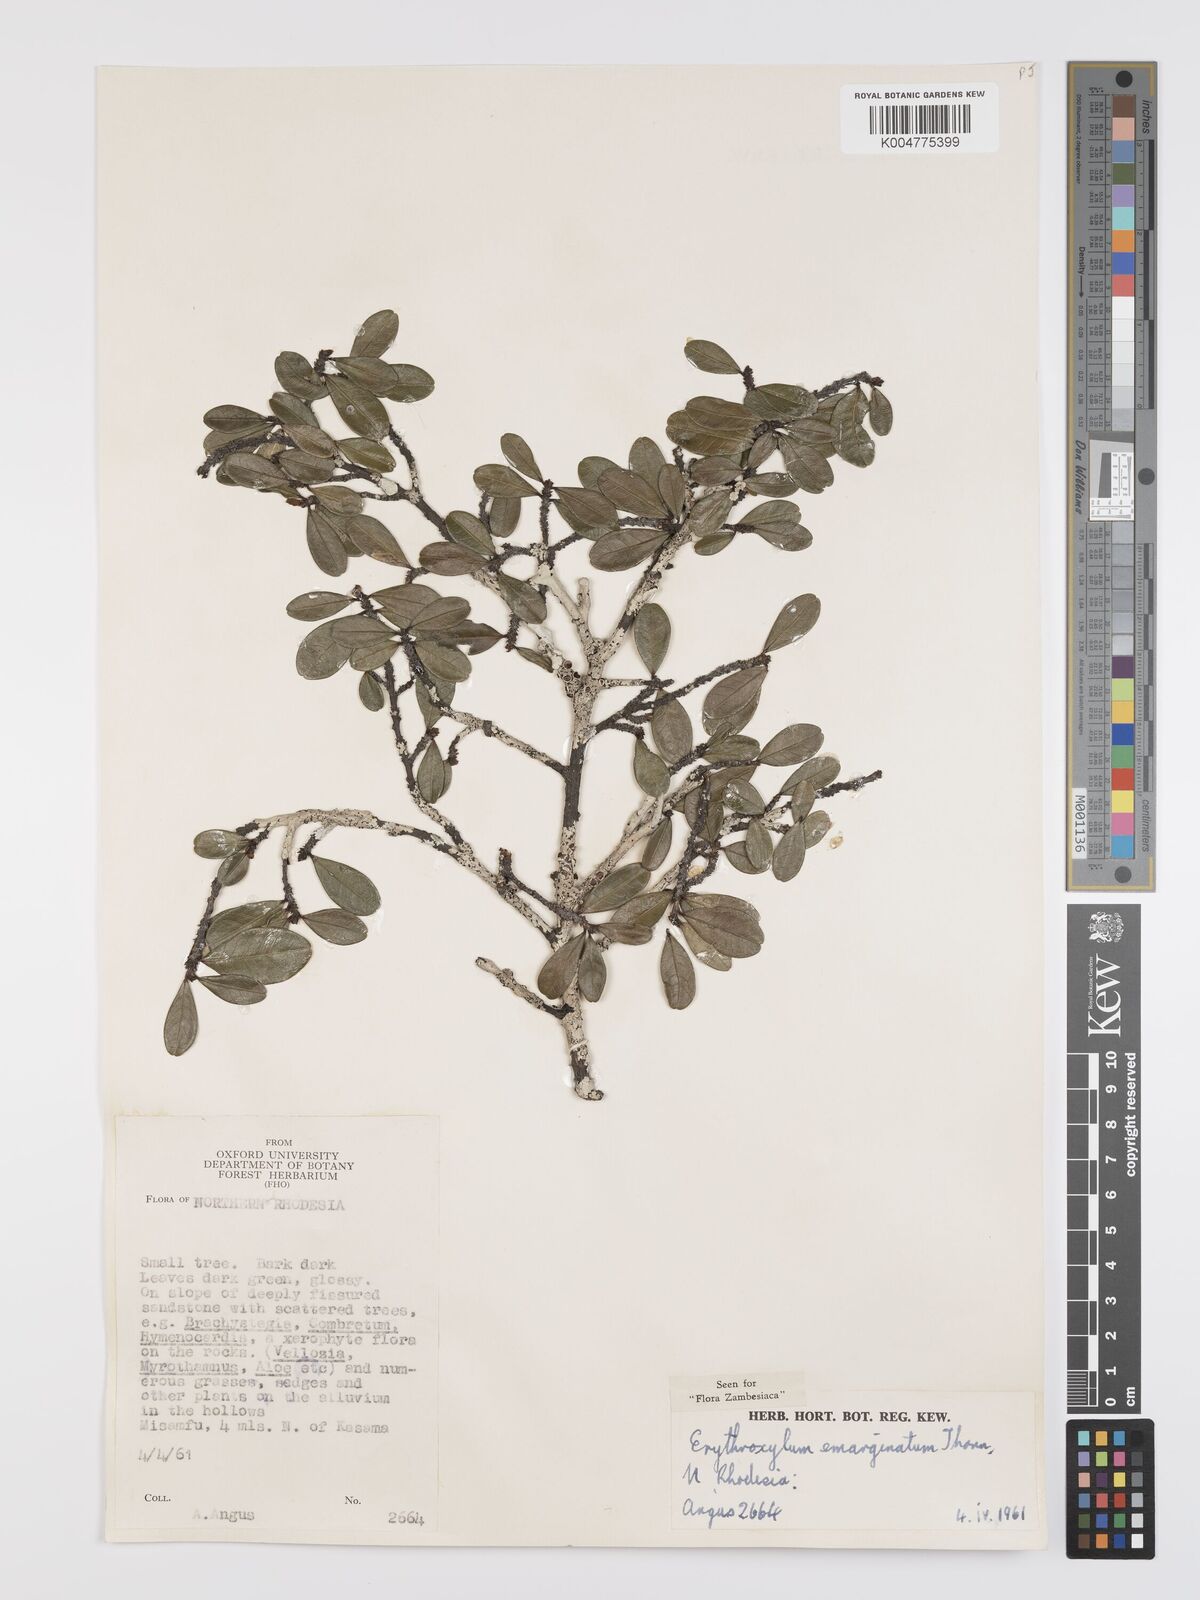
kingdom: Plantae
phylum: Tracheophyta
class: Magnoliopsida
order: Malpighiales
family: Erythroxylaceae
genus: Erythroxylum
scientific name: Erythroxylum emarginatum
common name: African coca-tree
